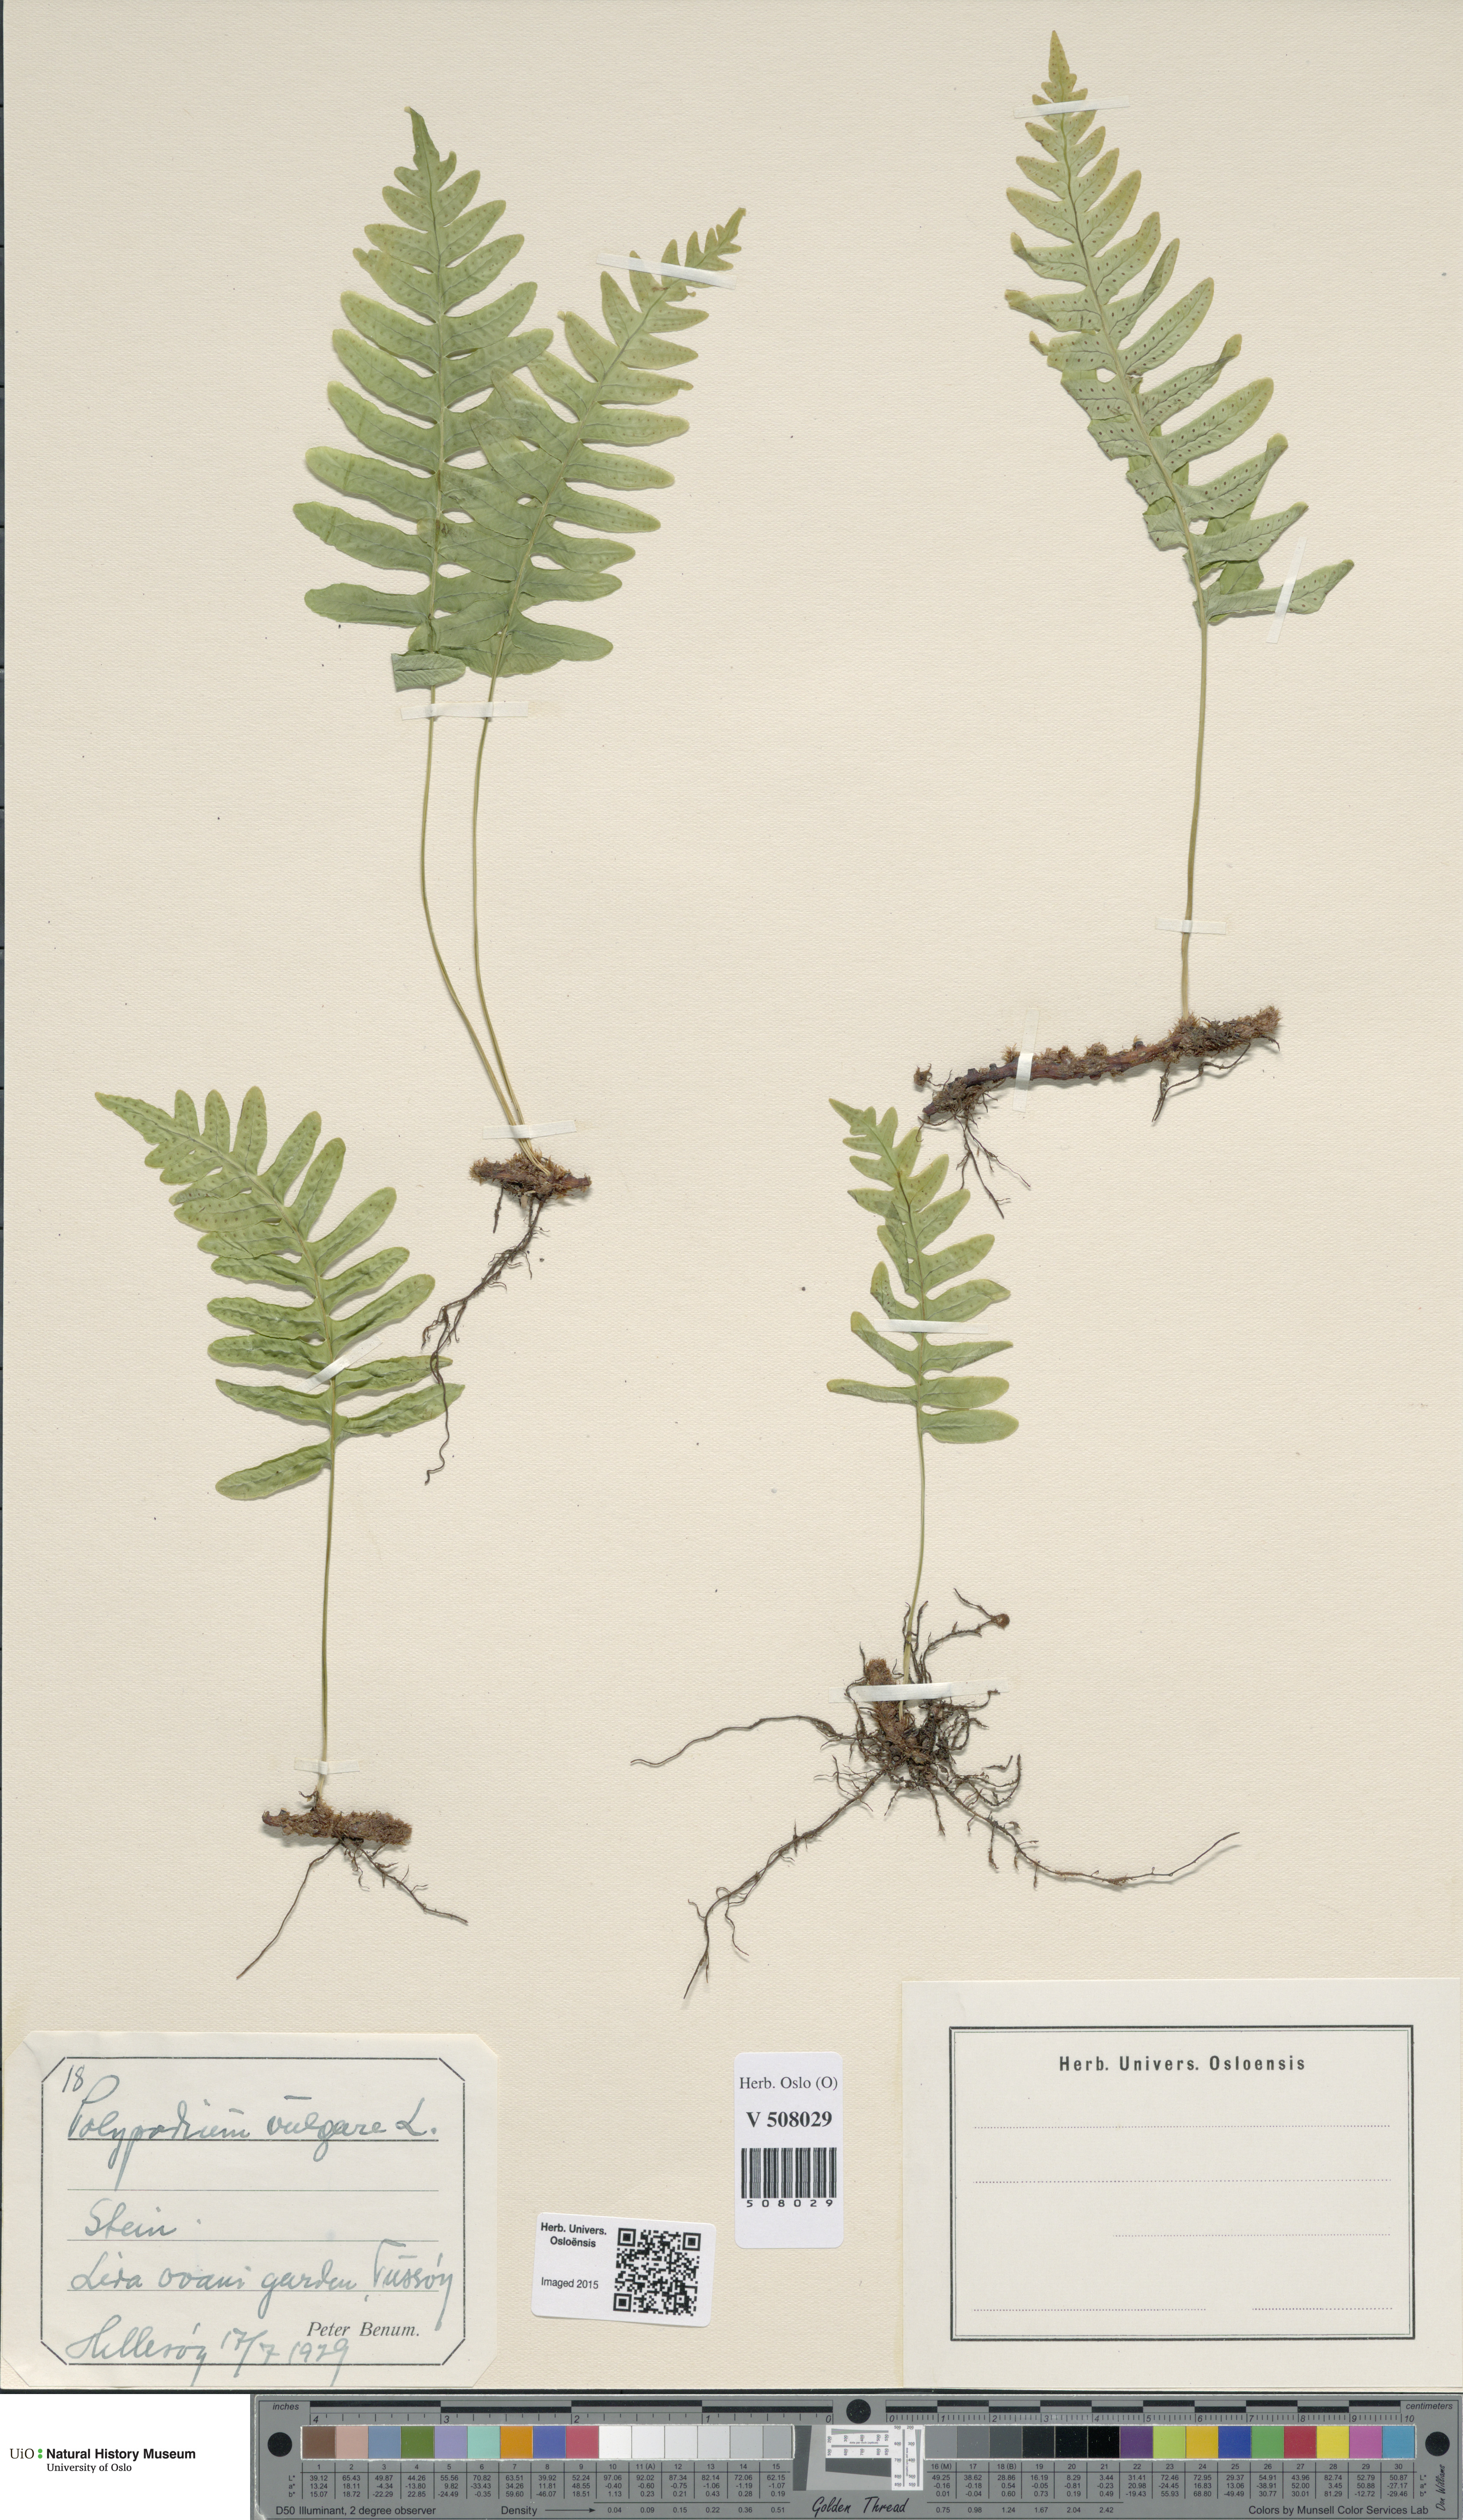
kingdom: Plantae
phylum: Tracheophyta
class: Polypodiopsida
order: Polypodiales
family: Polypodiaceae
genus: Polypodium
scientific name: Polypodium vulgare
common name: Common polypody
